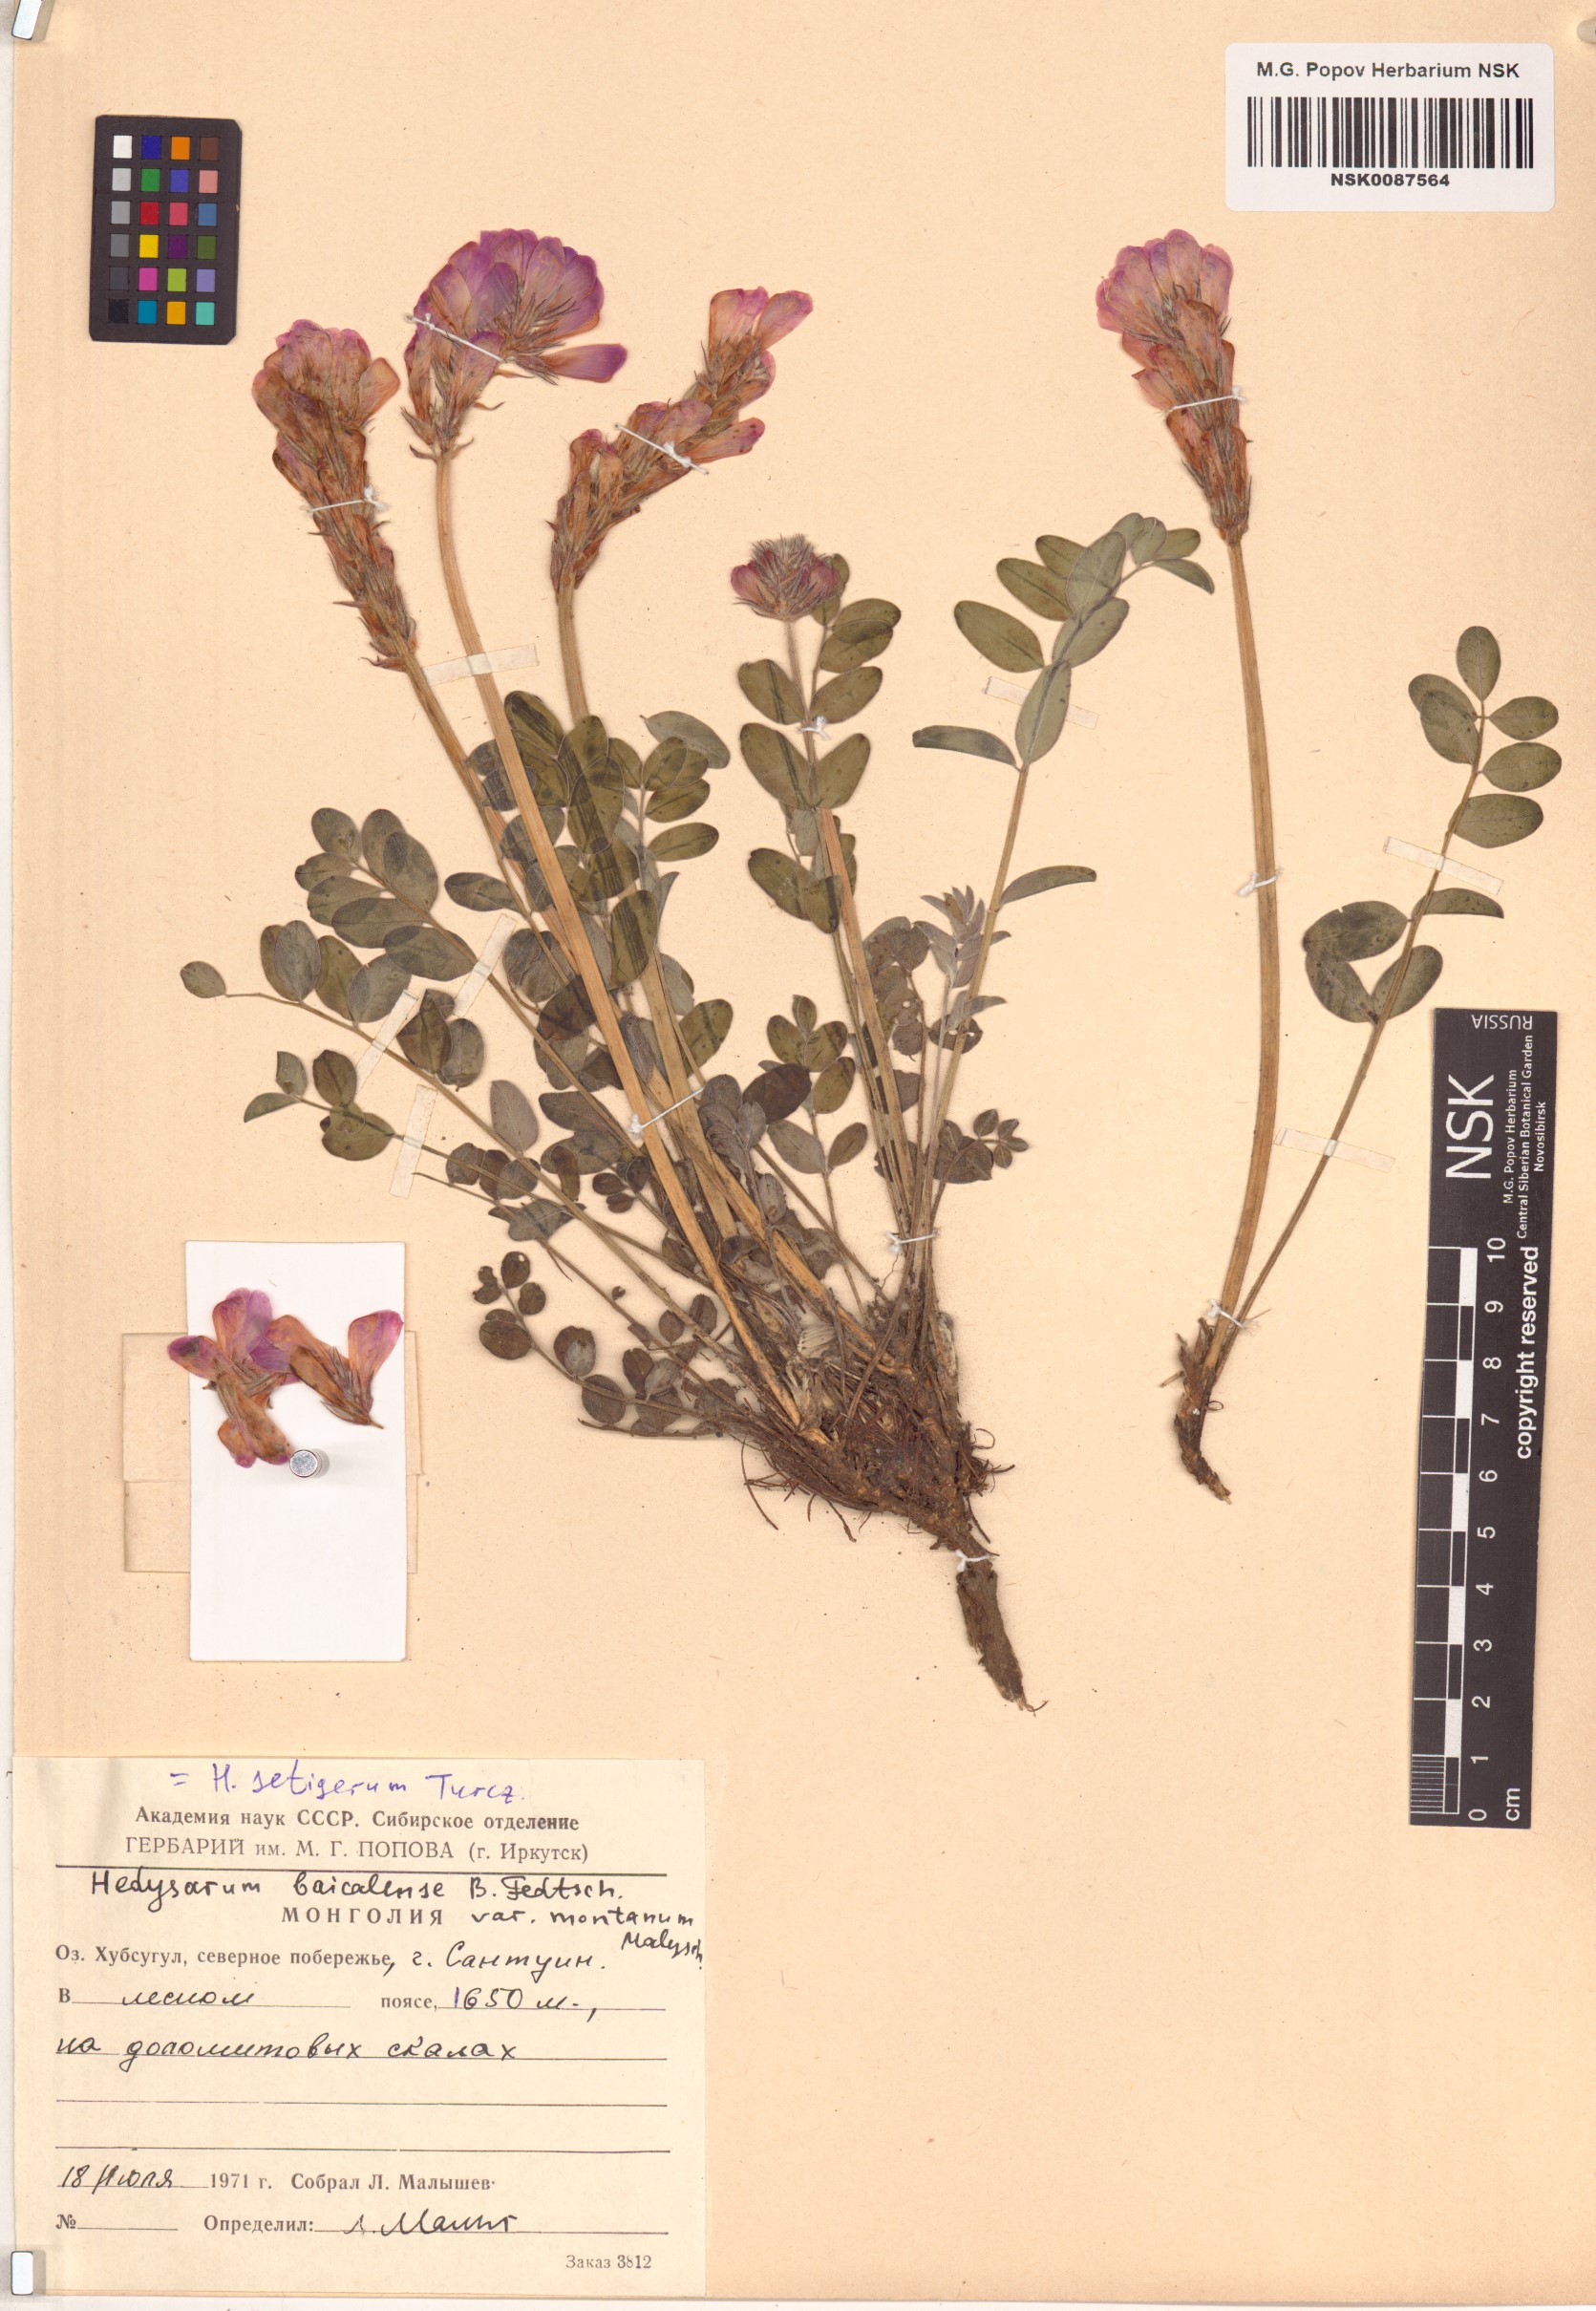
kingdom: Plantae
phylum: Tracheophyta
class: Magnoliopsida
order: Fabales
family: Fabaceae
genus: Hedysarum
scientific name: Hedysarum setigerum
